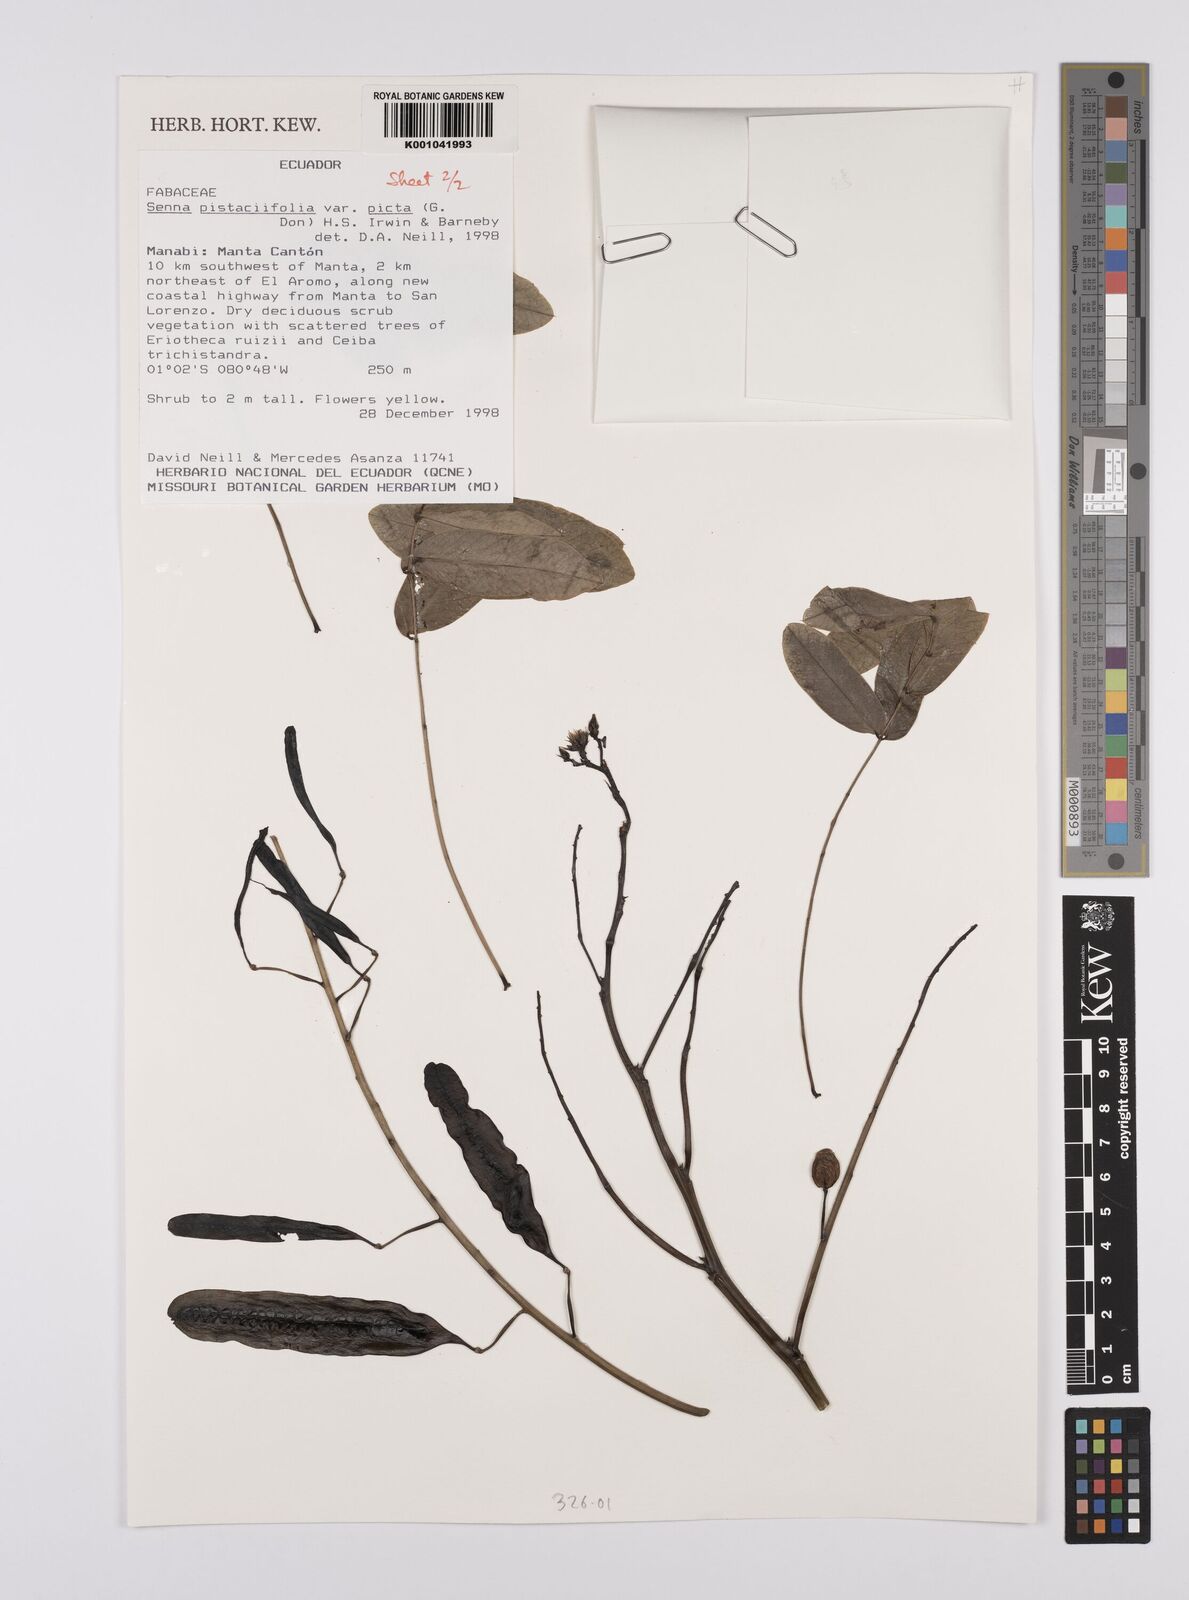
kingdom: Plantae
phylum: Tracheophyta
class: Magnoliopsida
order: Fabales
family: Fabaceae
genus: Senna
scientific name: Senna pistaciifolia
